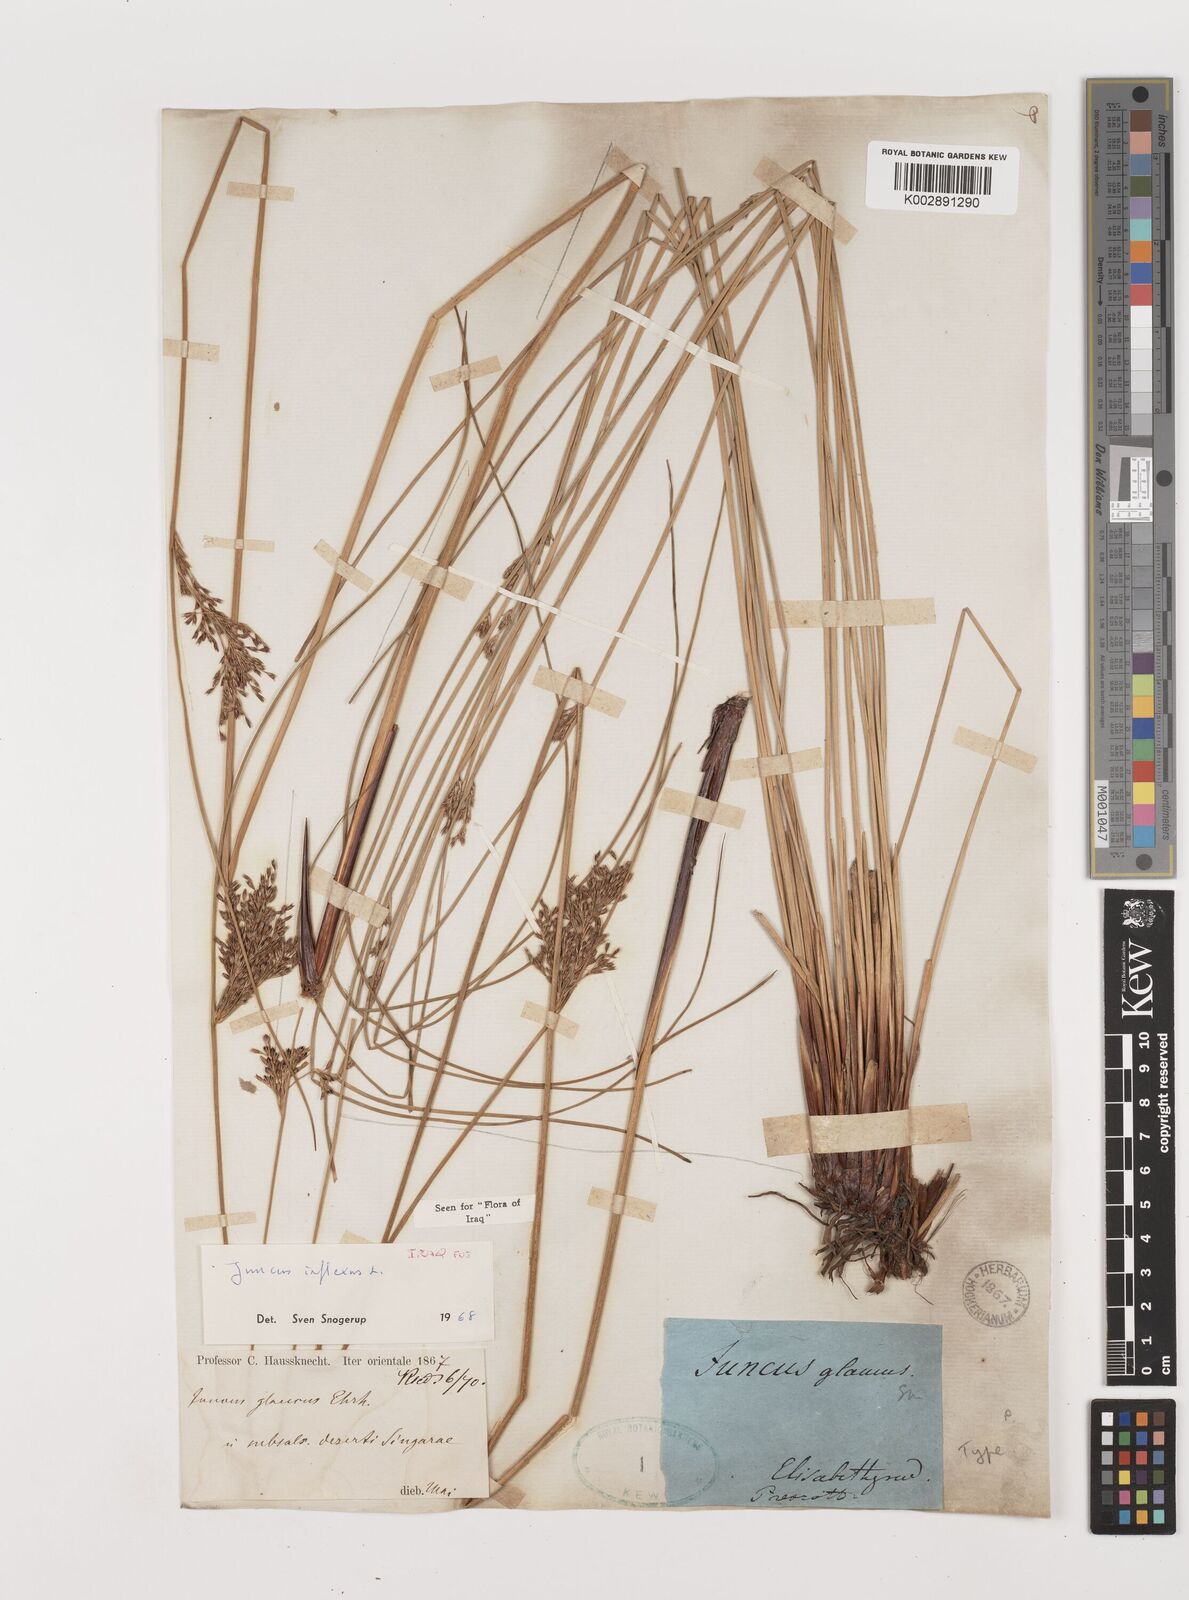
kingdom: Plantae
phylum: Tracheophyta
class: Liliopsida
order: Poales
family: Juncaceae
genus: Juncus
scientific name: Juncus inflexus
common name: Hard rush
